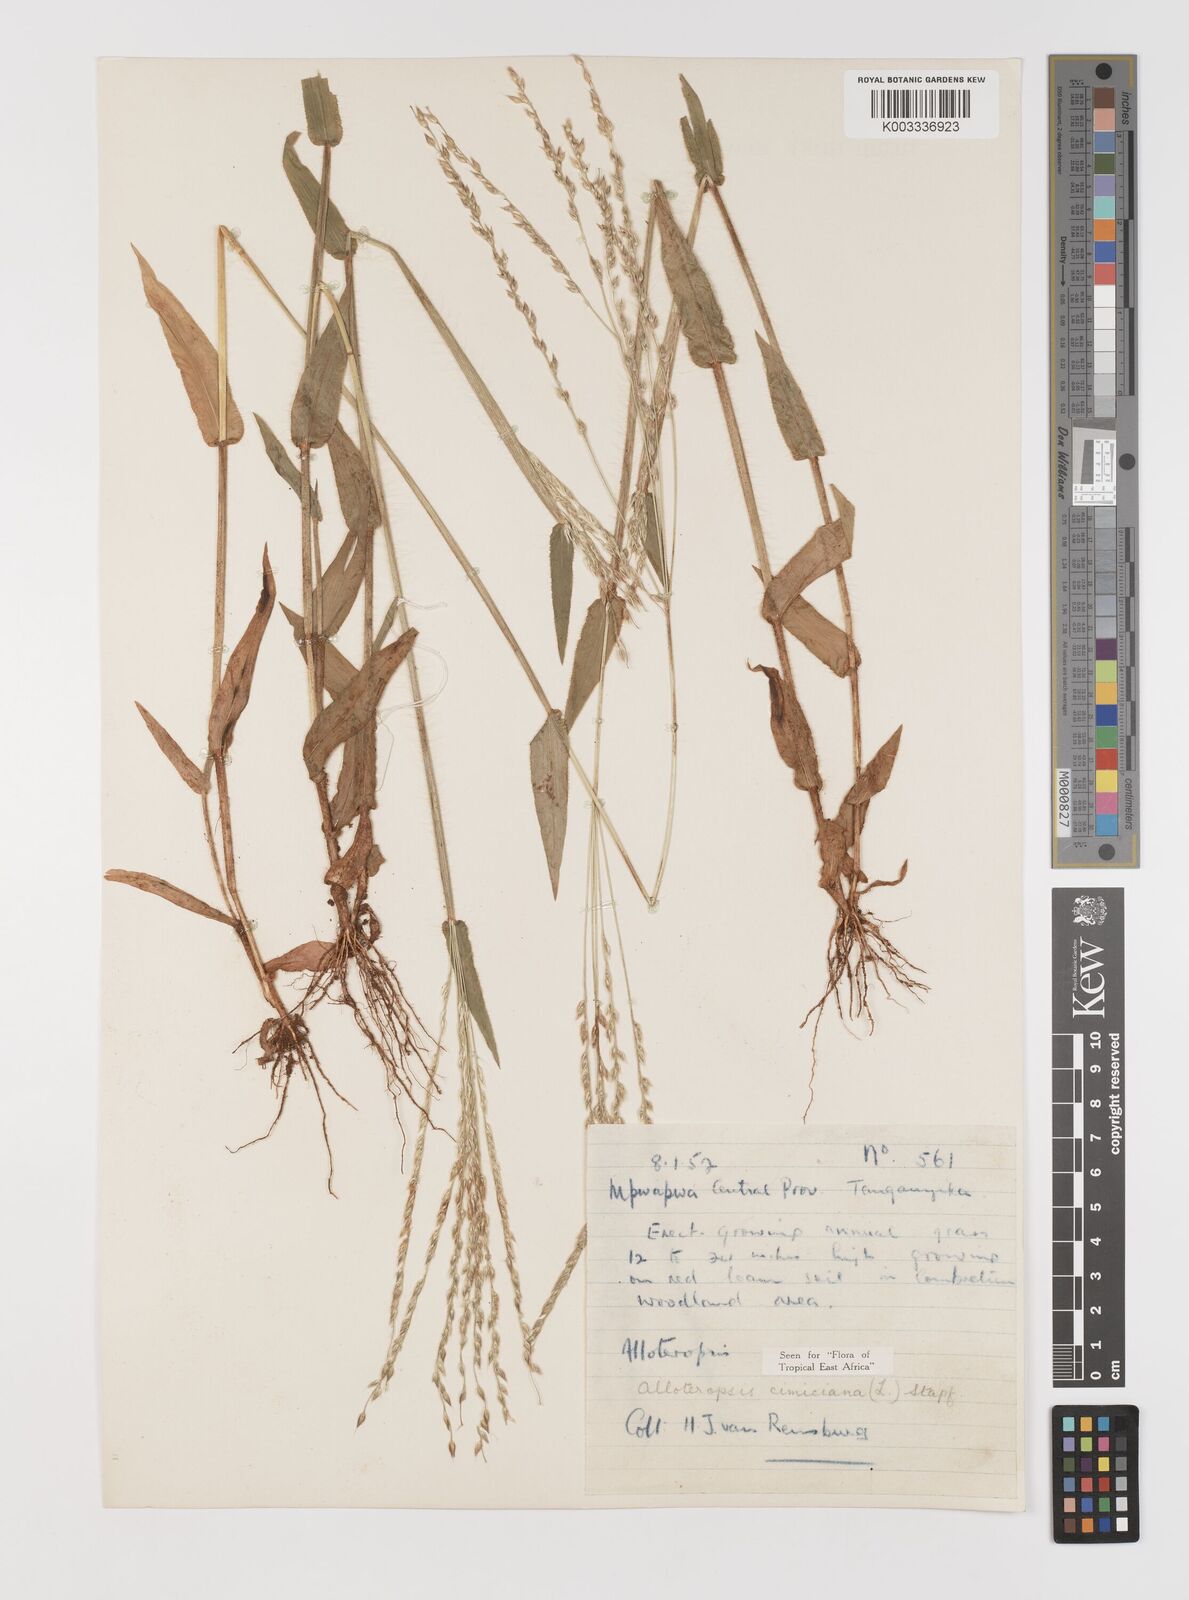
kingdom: Plantae
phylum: Tracheophyta
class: Liliopsida
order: Poales
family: Poaceae
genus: Alloteropsis
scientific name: Alloteropsis cimicina
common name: Summergrass
